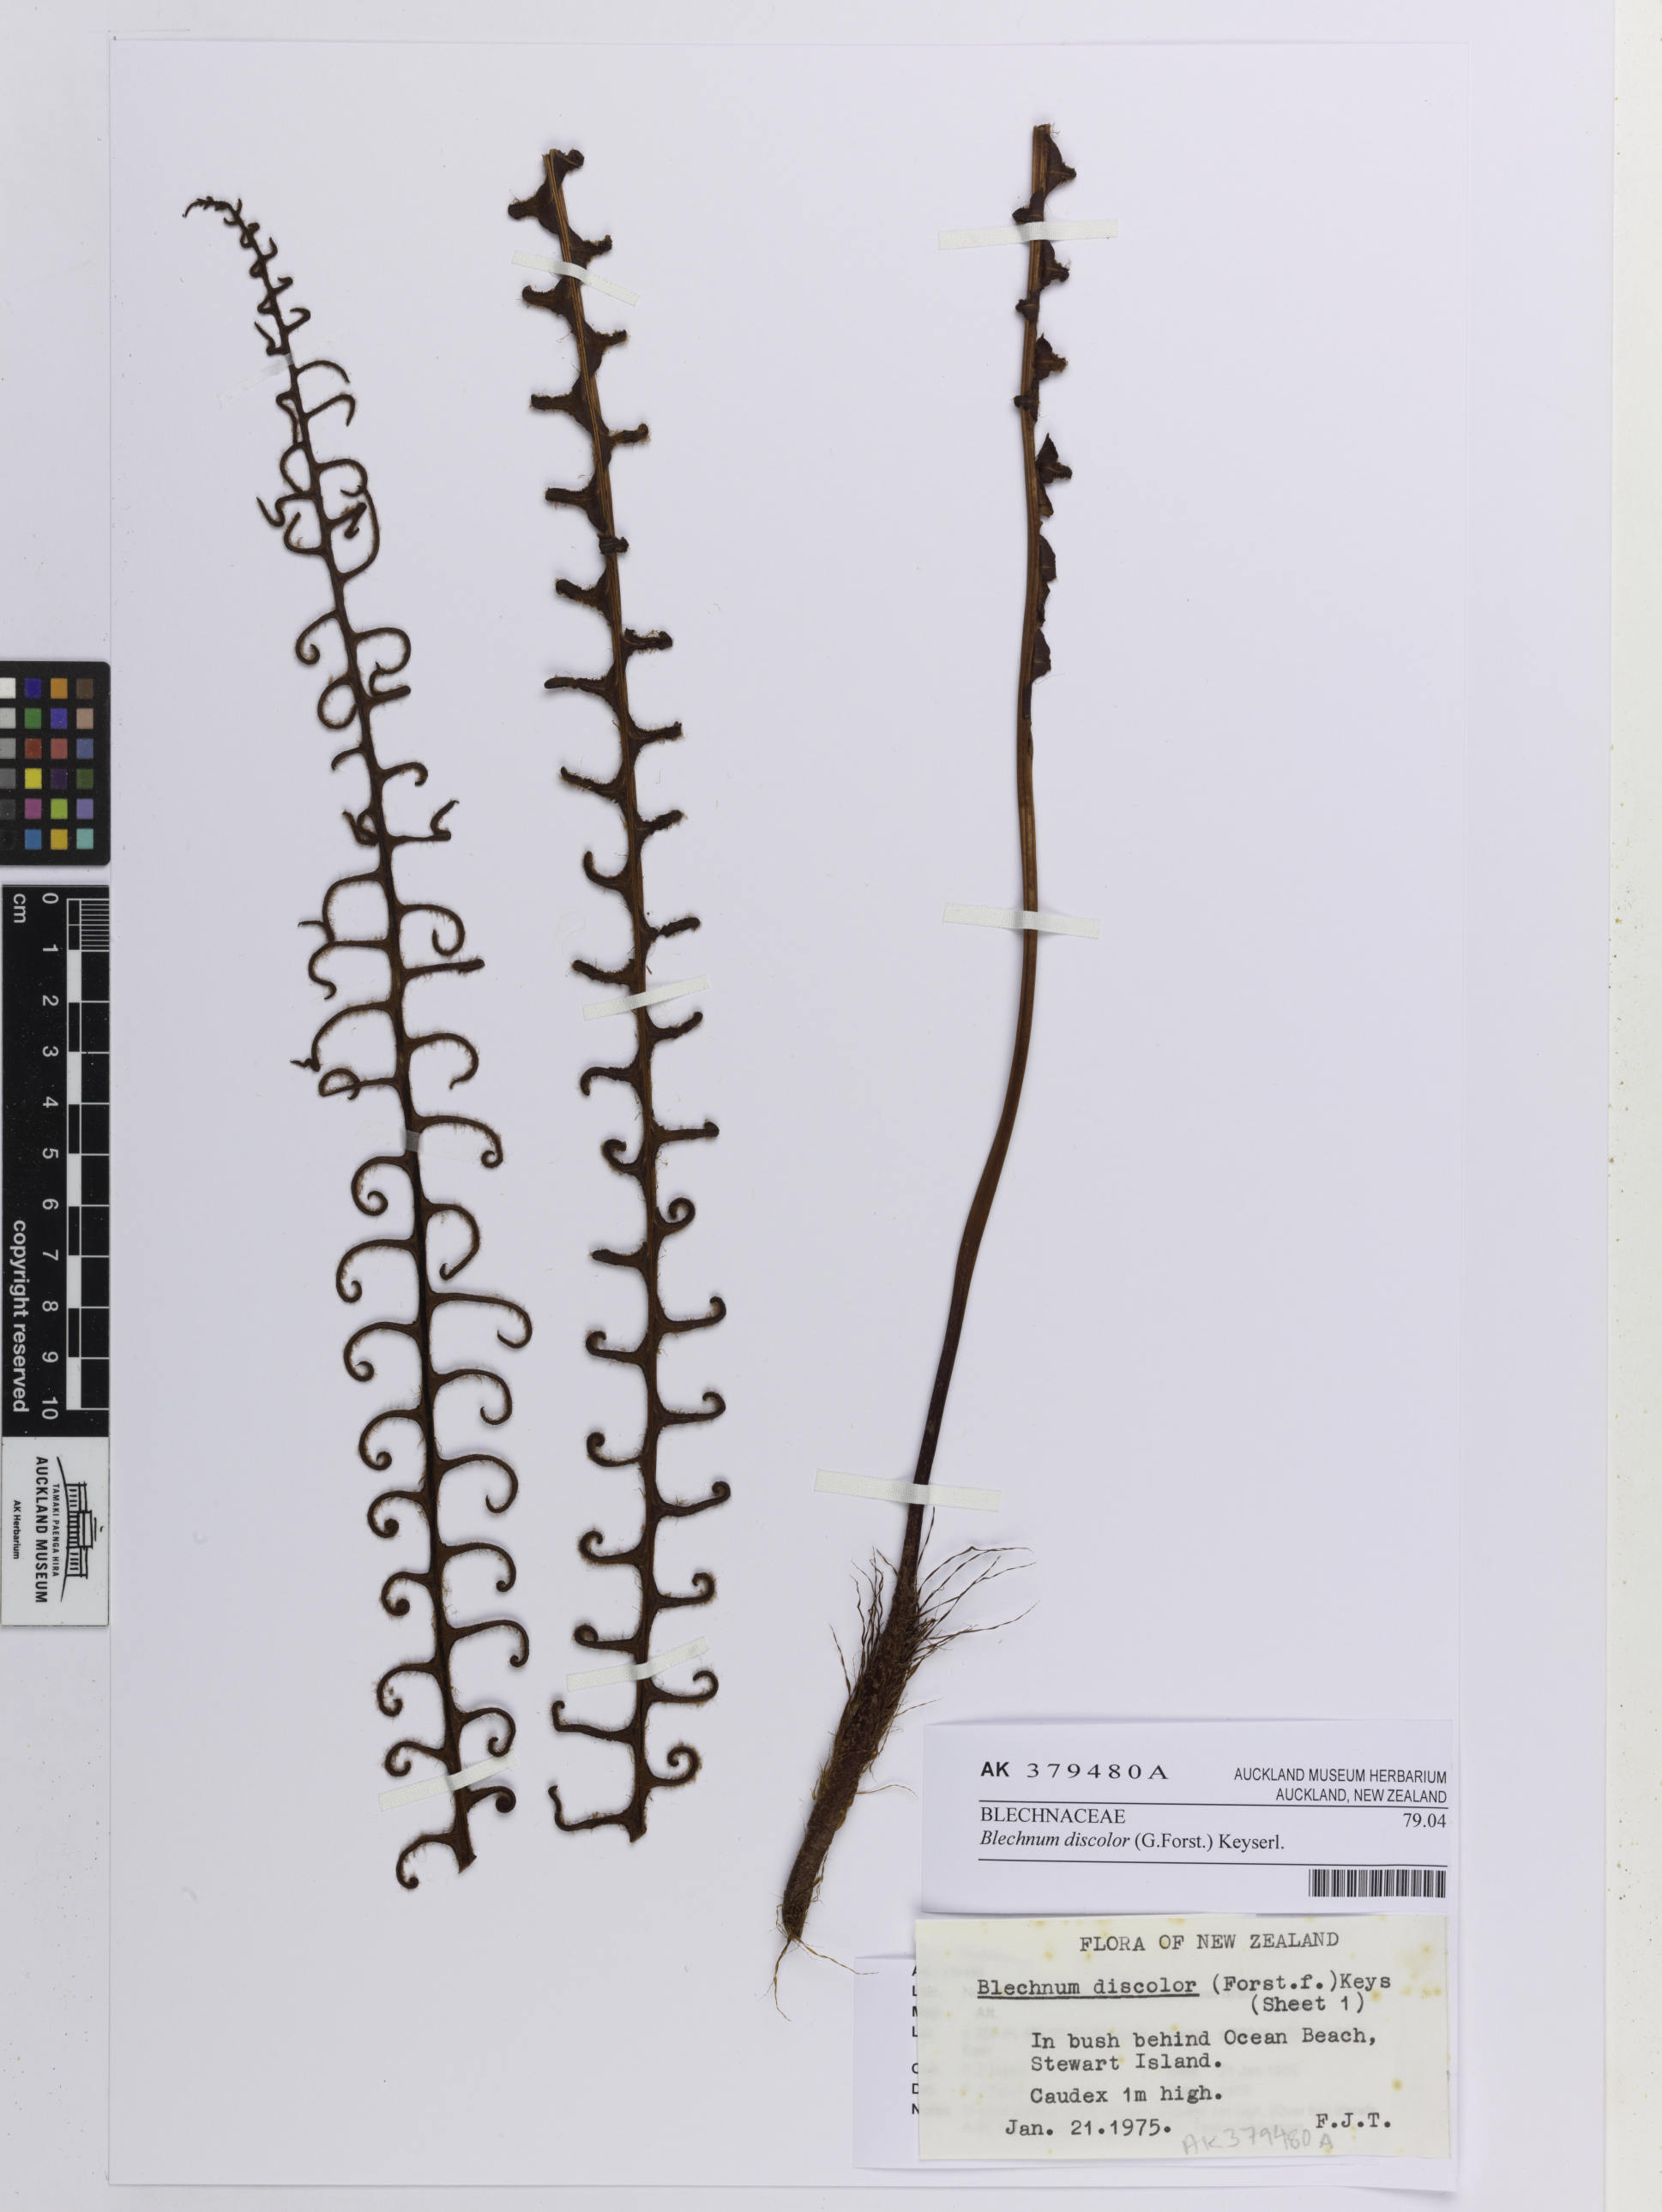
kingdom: Plantae
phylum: Tracheophyta
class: Polypodiopsida
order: Polypodiales
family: Blechnaceae
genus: Lomaria
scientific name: Lomaria discolor
